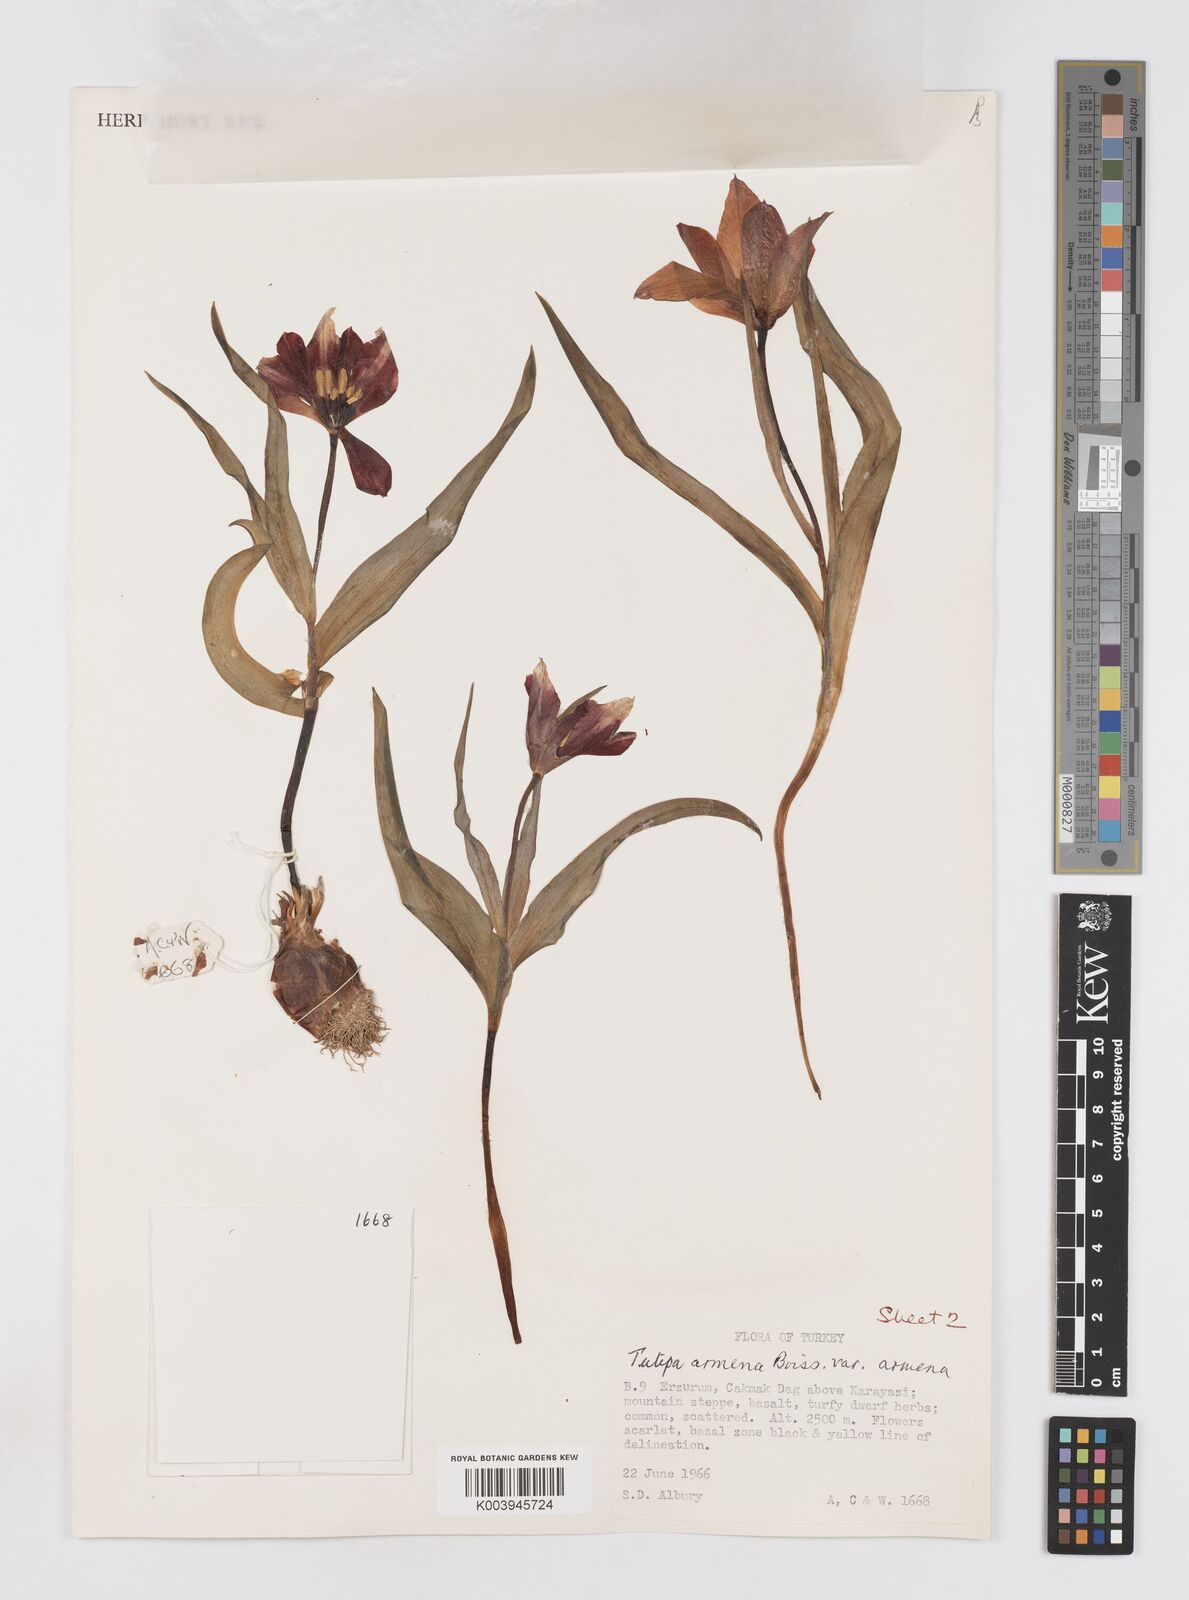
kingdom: Plantae
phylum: Tracheophyta
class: Liliopsida
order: Liliales
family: Liliaceae
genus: Tulipa
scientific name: Tulipa armena
